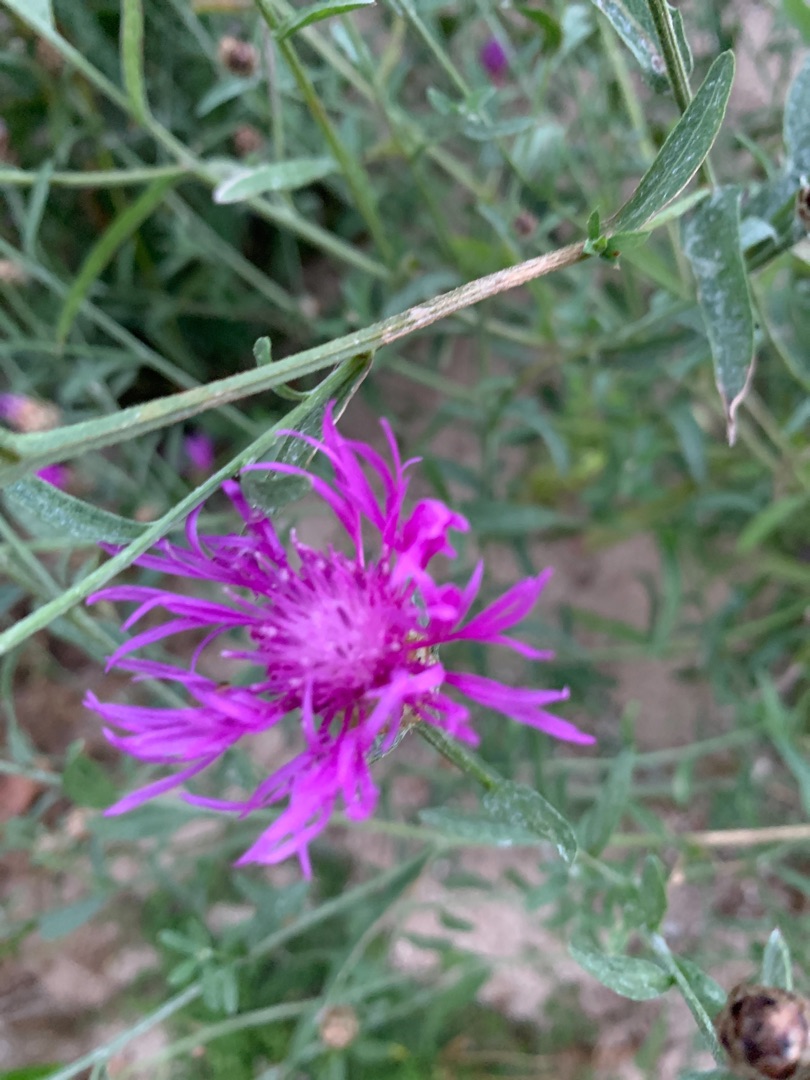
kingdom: Plantae
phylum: Tracheophyta
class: Magnoliopsida
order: Asterales
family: Asteraceae
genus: Centaurea
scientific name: Centaurea jacea
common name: Almindelig knopurt
